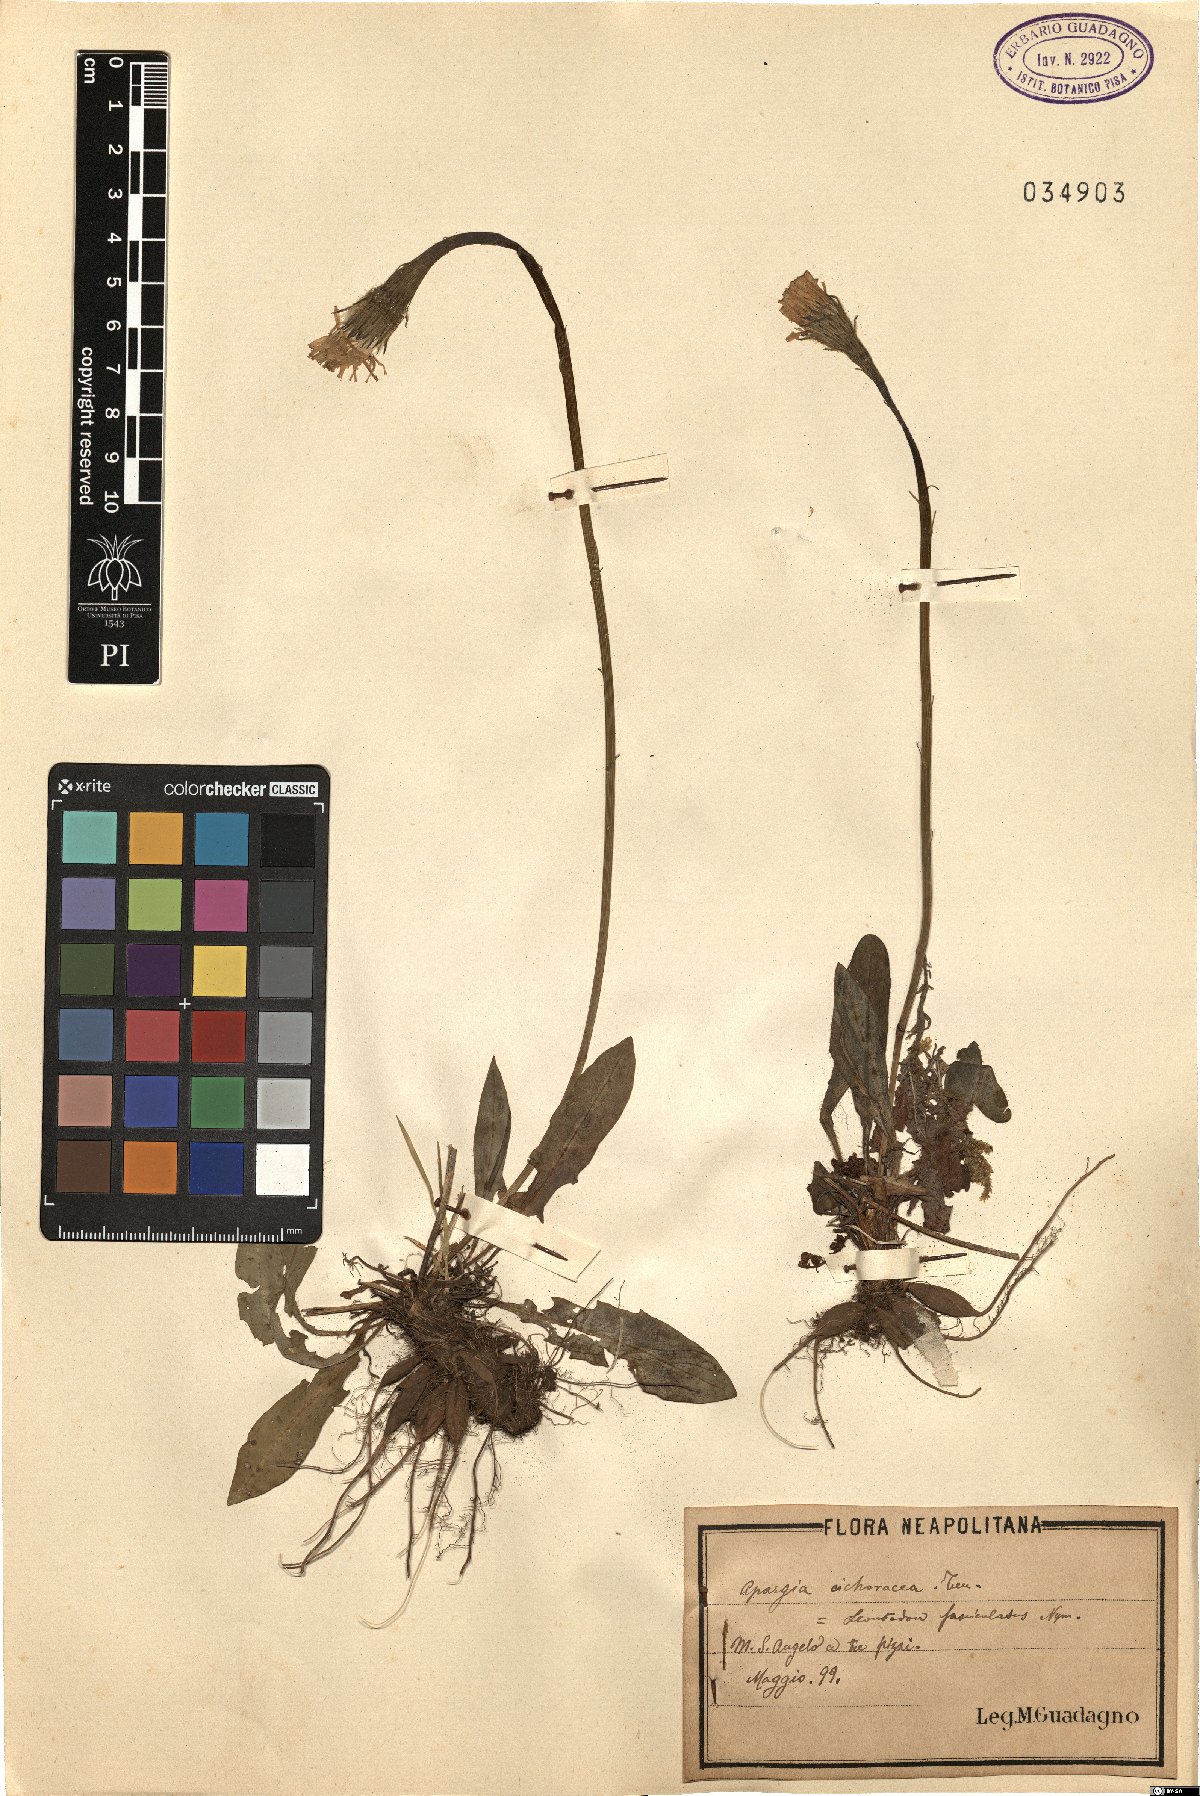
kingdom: Plantae
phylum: Tracheophyta
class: Magnoliopsida
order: Asterales
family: Asteraceae
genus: Scorzoneroides
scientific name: Scorzoneroides cichoriacea
